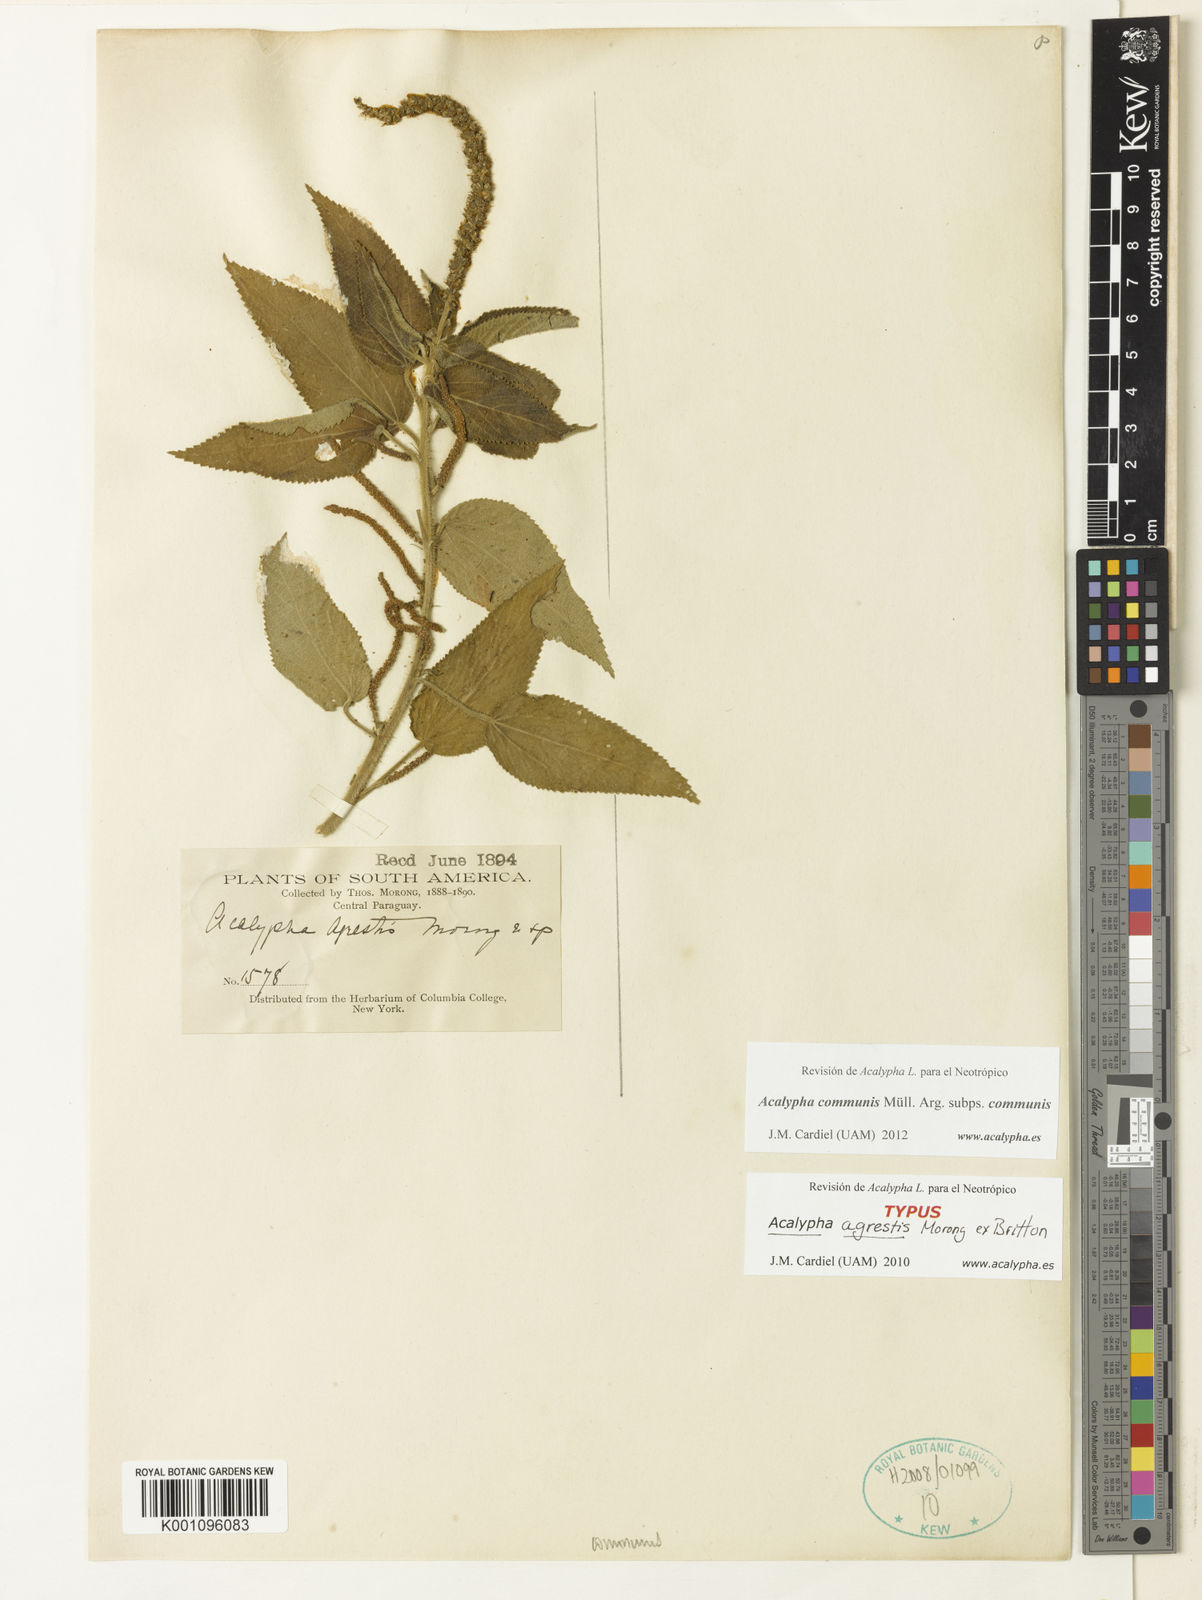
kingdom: Plantae
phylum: Tracheophyta
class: Magnoliopsida
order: Malpighiales
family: Euphorbiaceae
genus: Acalypha
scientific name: Acalypha
